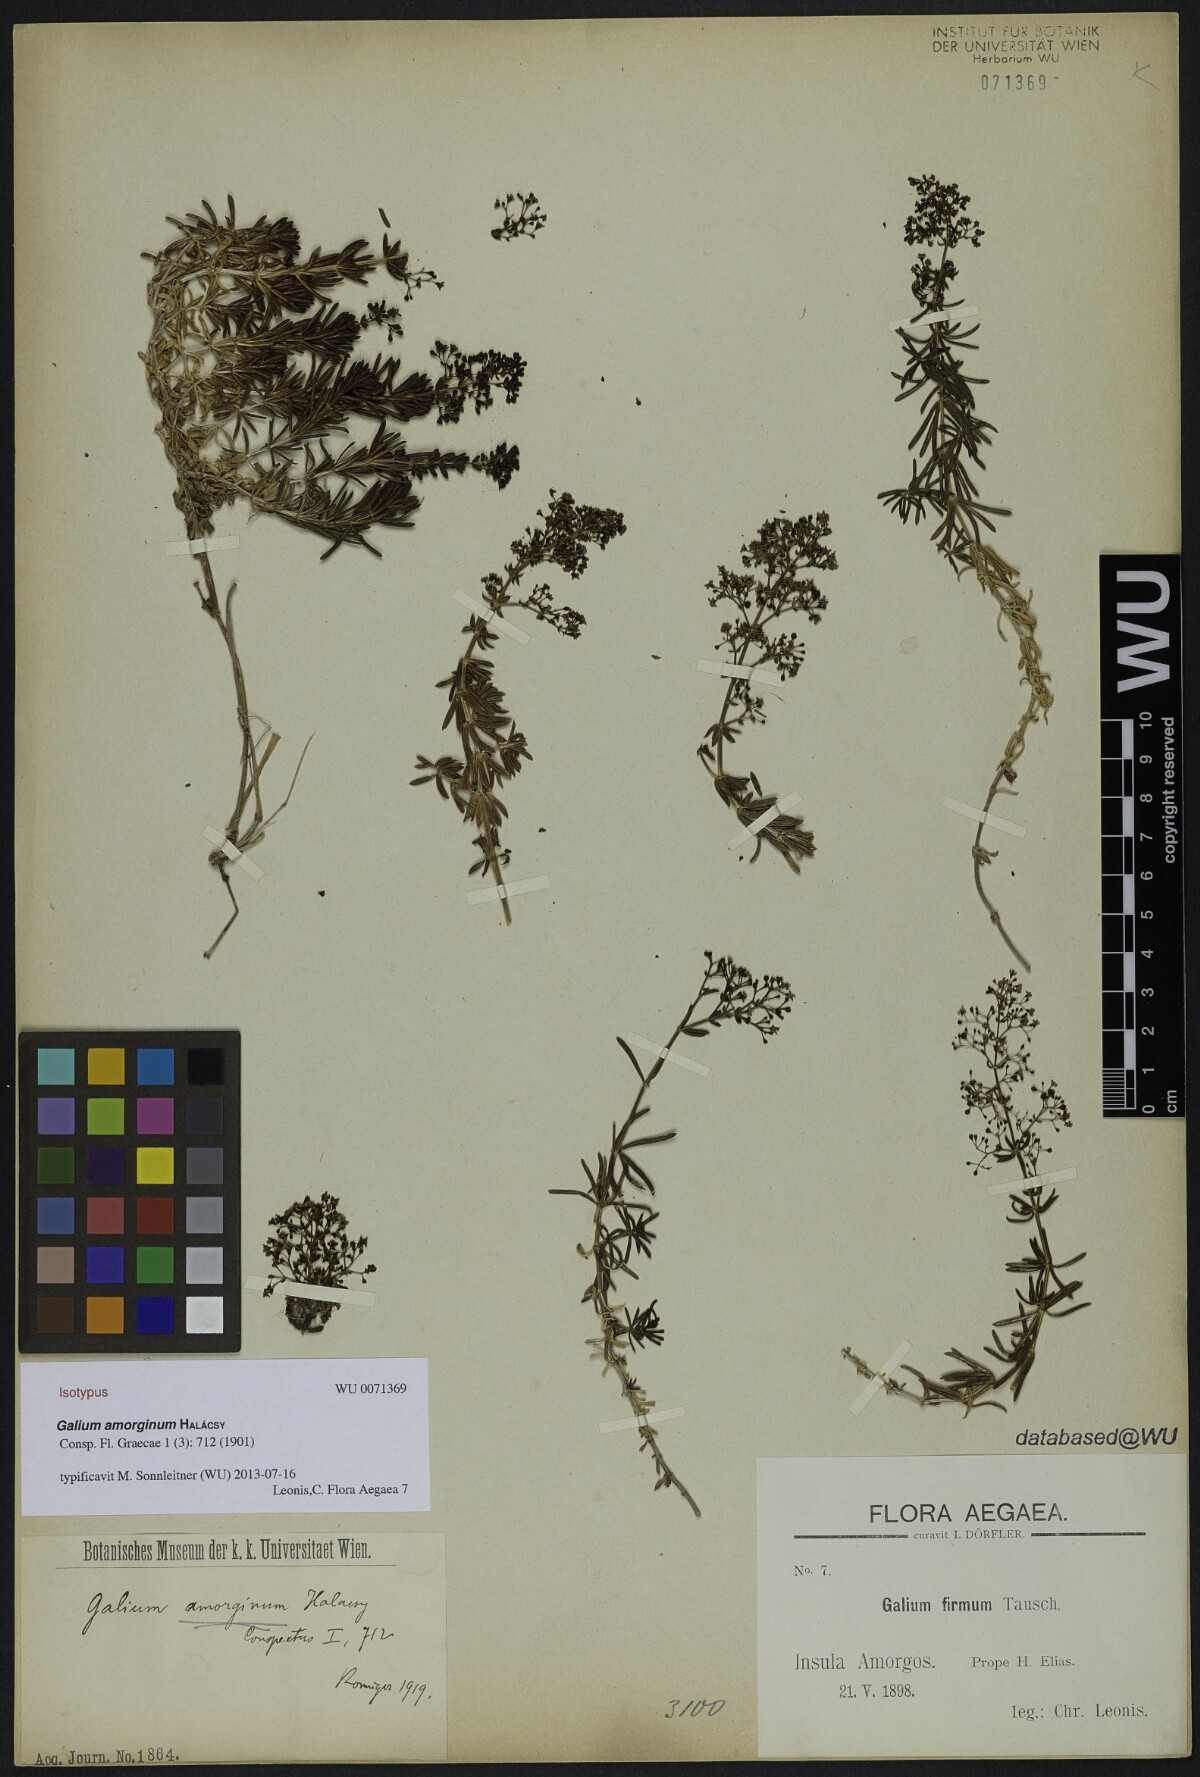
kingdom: Plantae
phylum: Tracheophyta
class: Magnoliopsida
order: Gentianales
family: Rubiaceae
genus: Galium
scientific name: Galium amorginum
